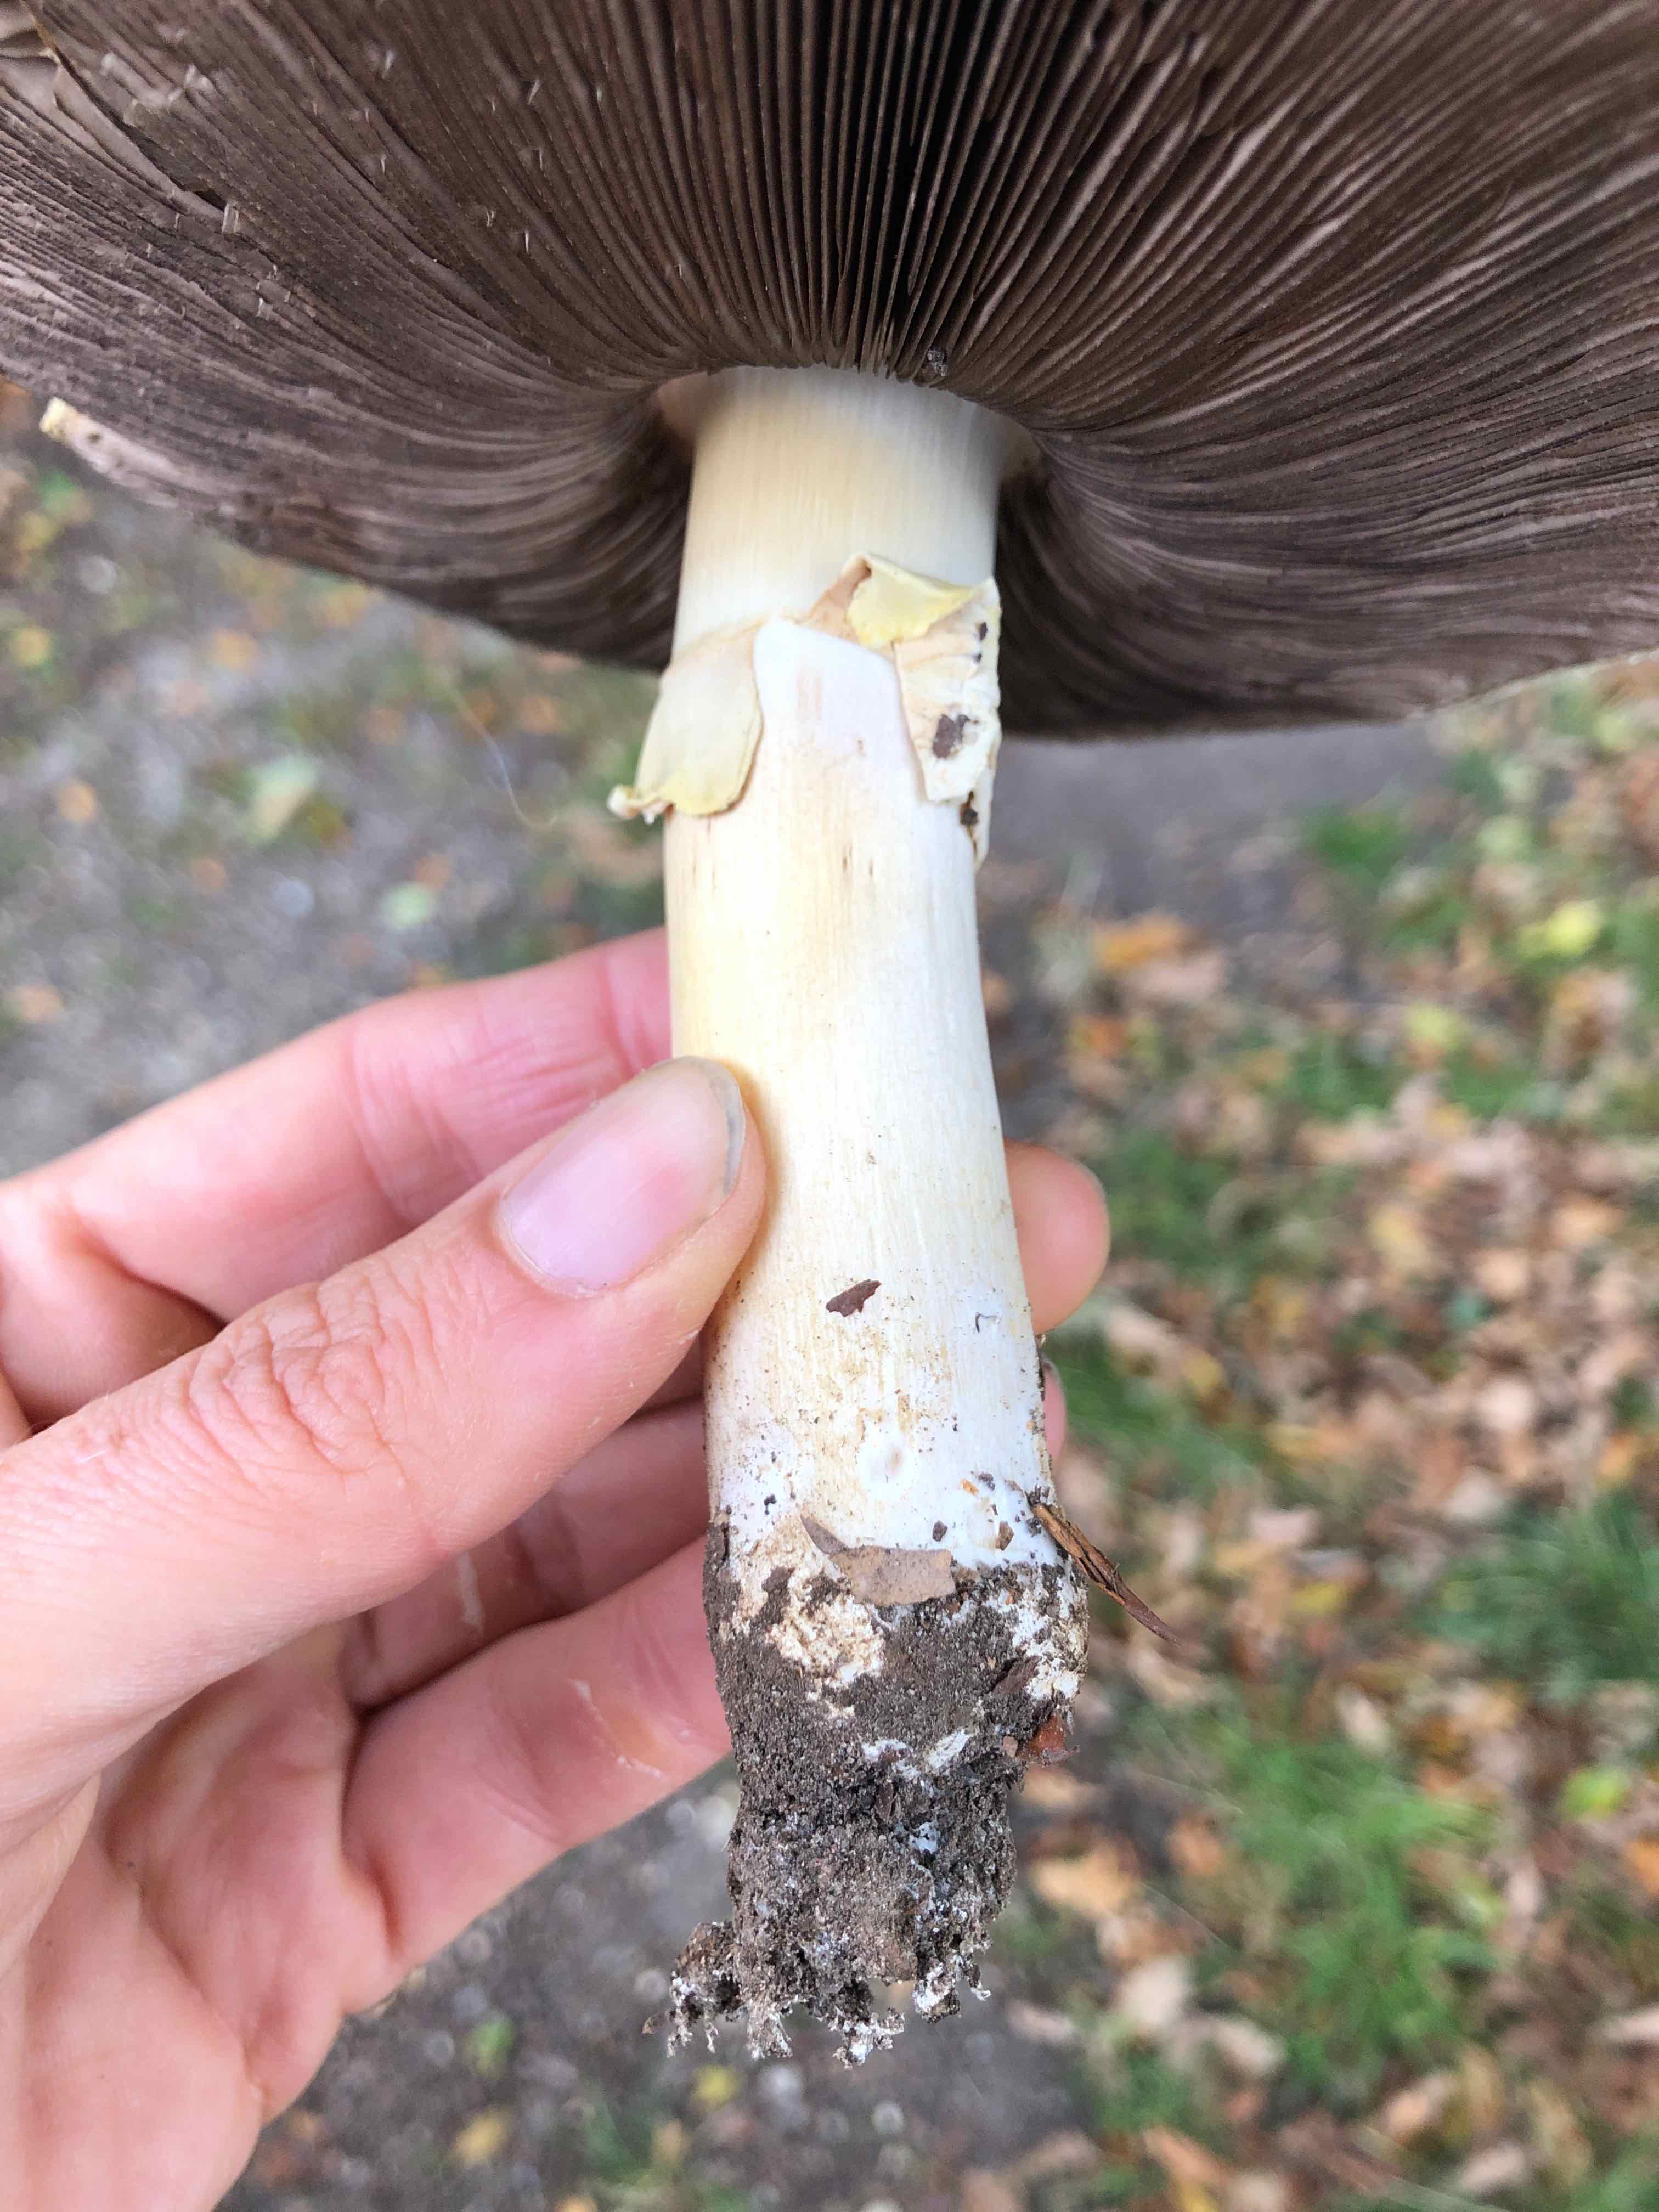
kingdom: Fungi
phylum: Basidiomycota
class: Agaricomycetes
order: Agaricales
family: Agaricaceae
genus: Agaricus
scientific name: Agaricus arvensis
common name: ager-champignon
